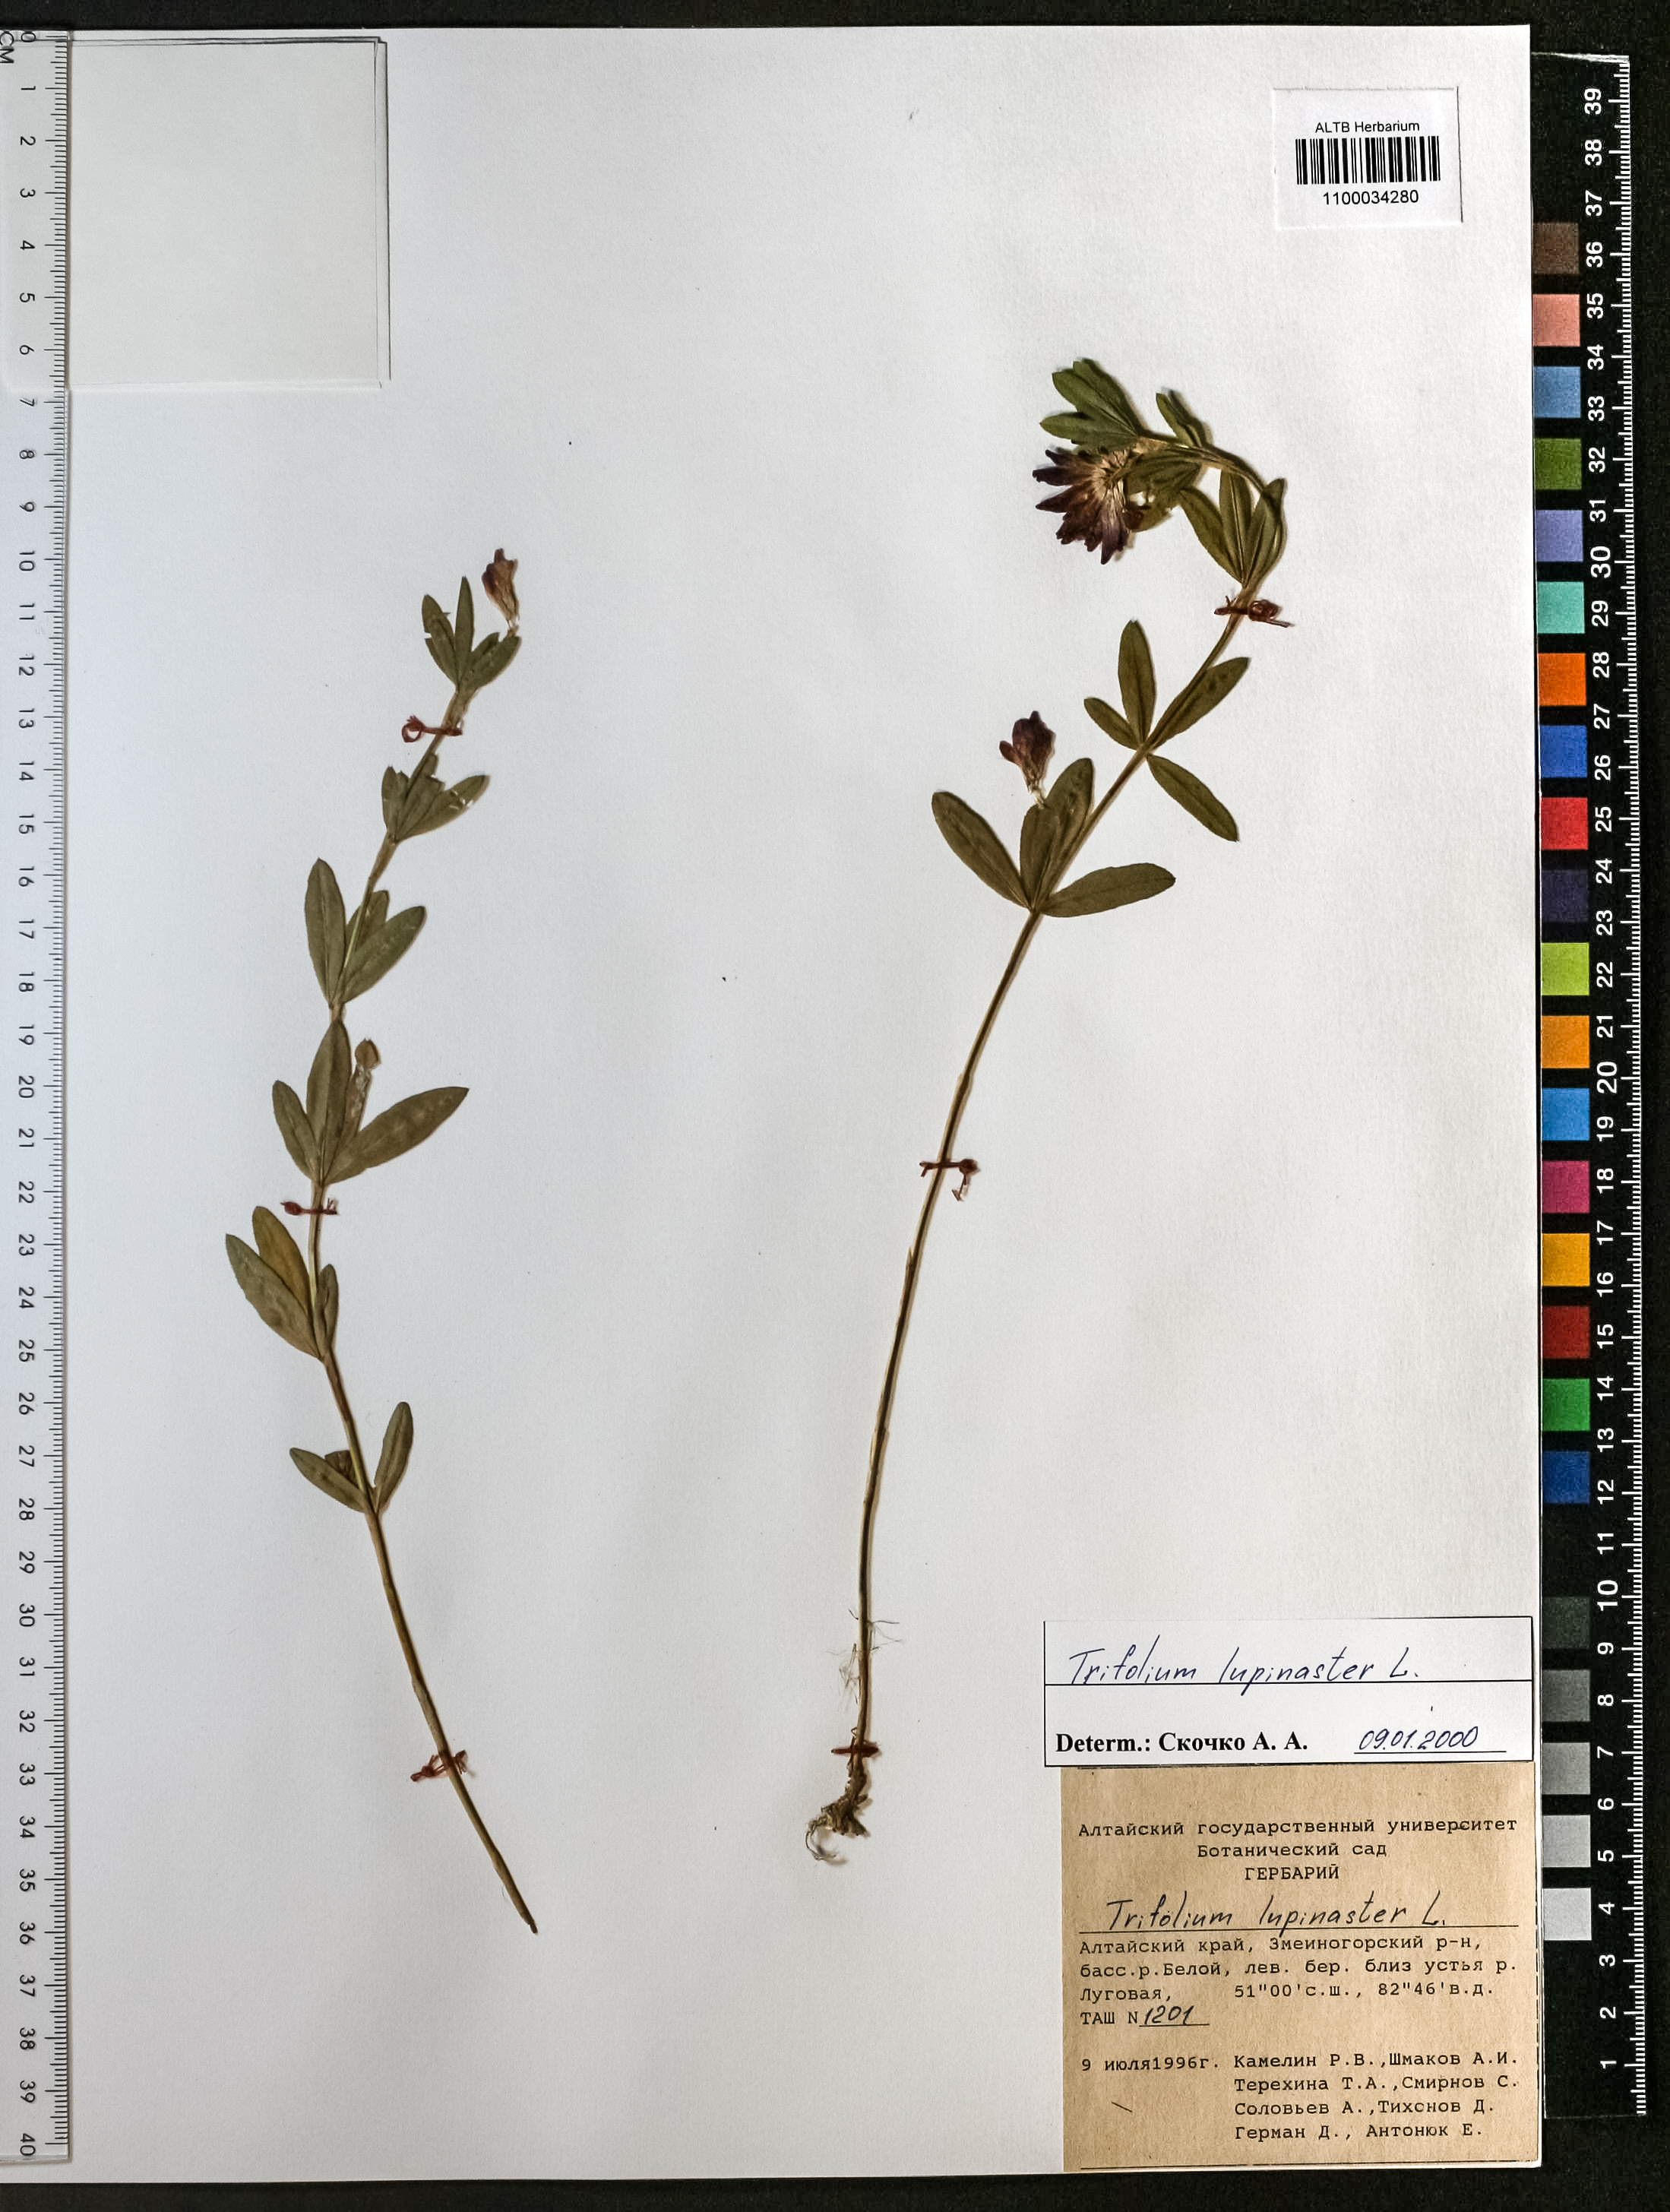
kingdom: Plantae
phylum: Tracheophyta
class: Magnoliopsida
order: Fabales
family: Fabaceae
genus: Trifolium
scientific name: Trifolium lupinaster
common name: Lupine clover
